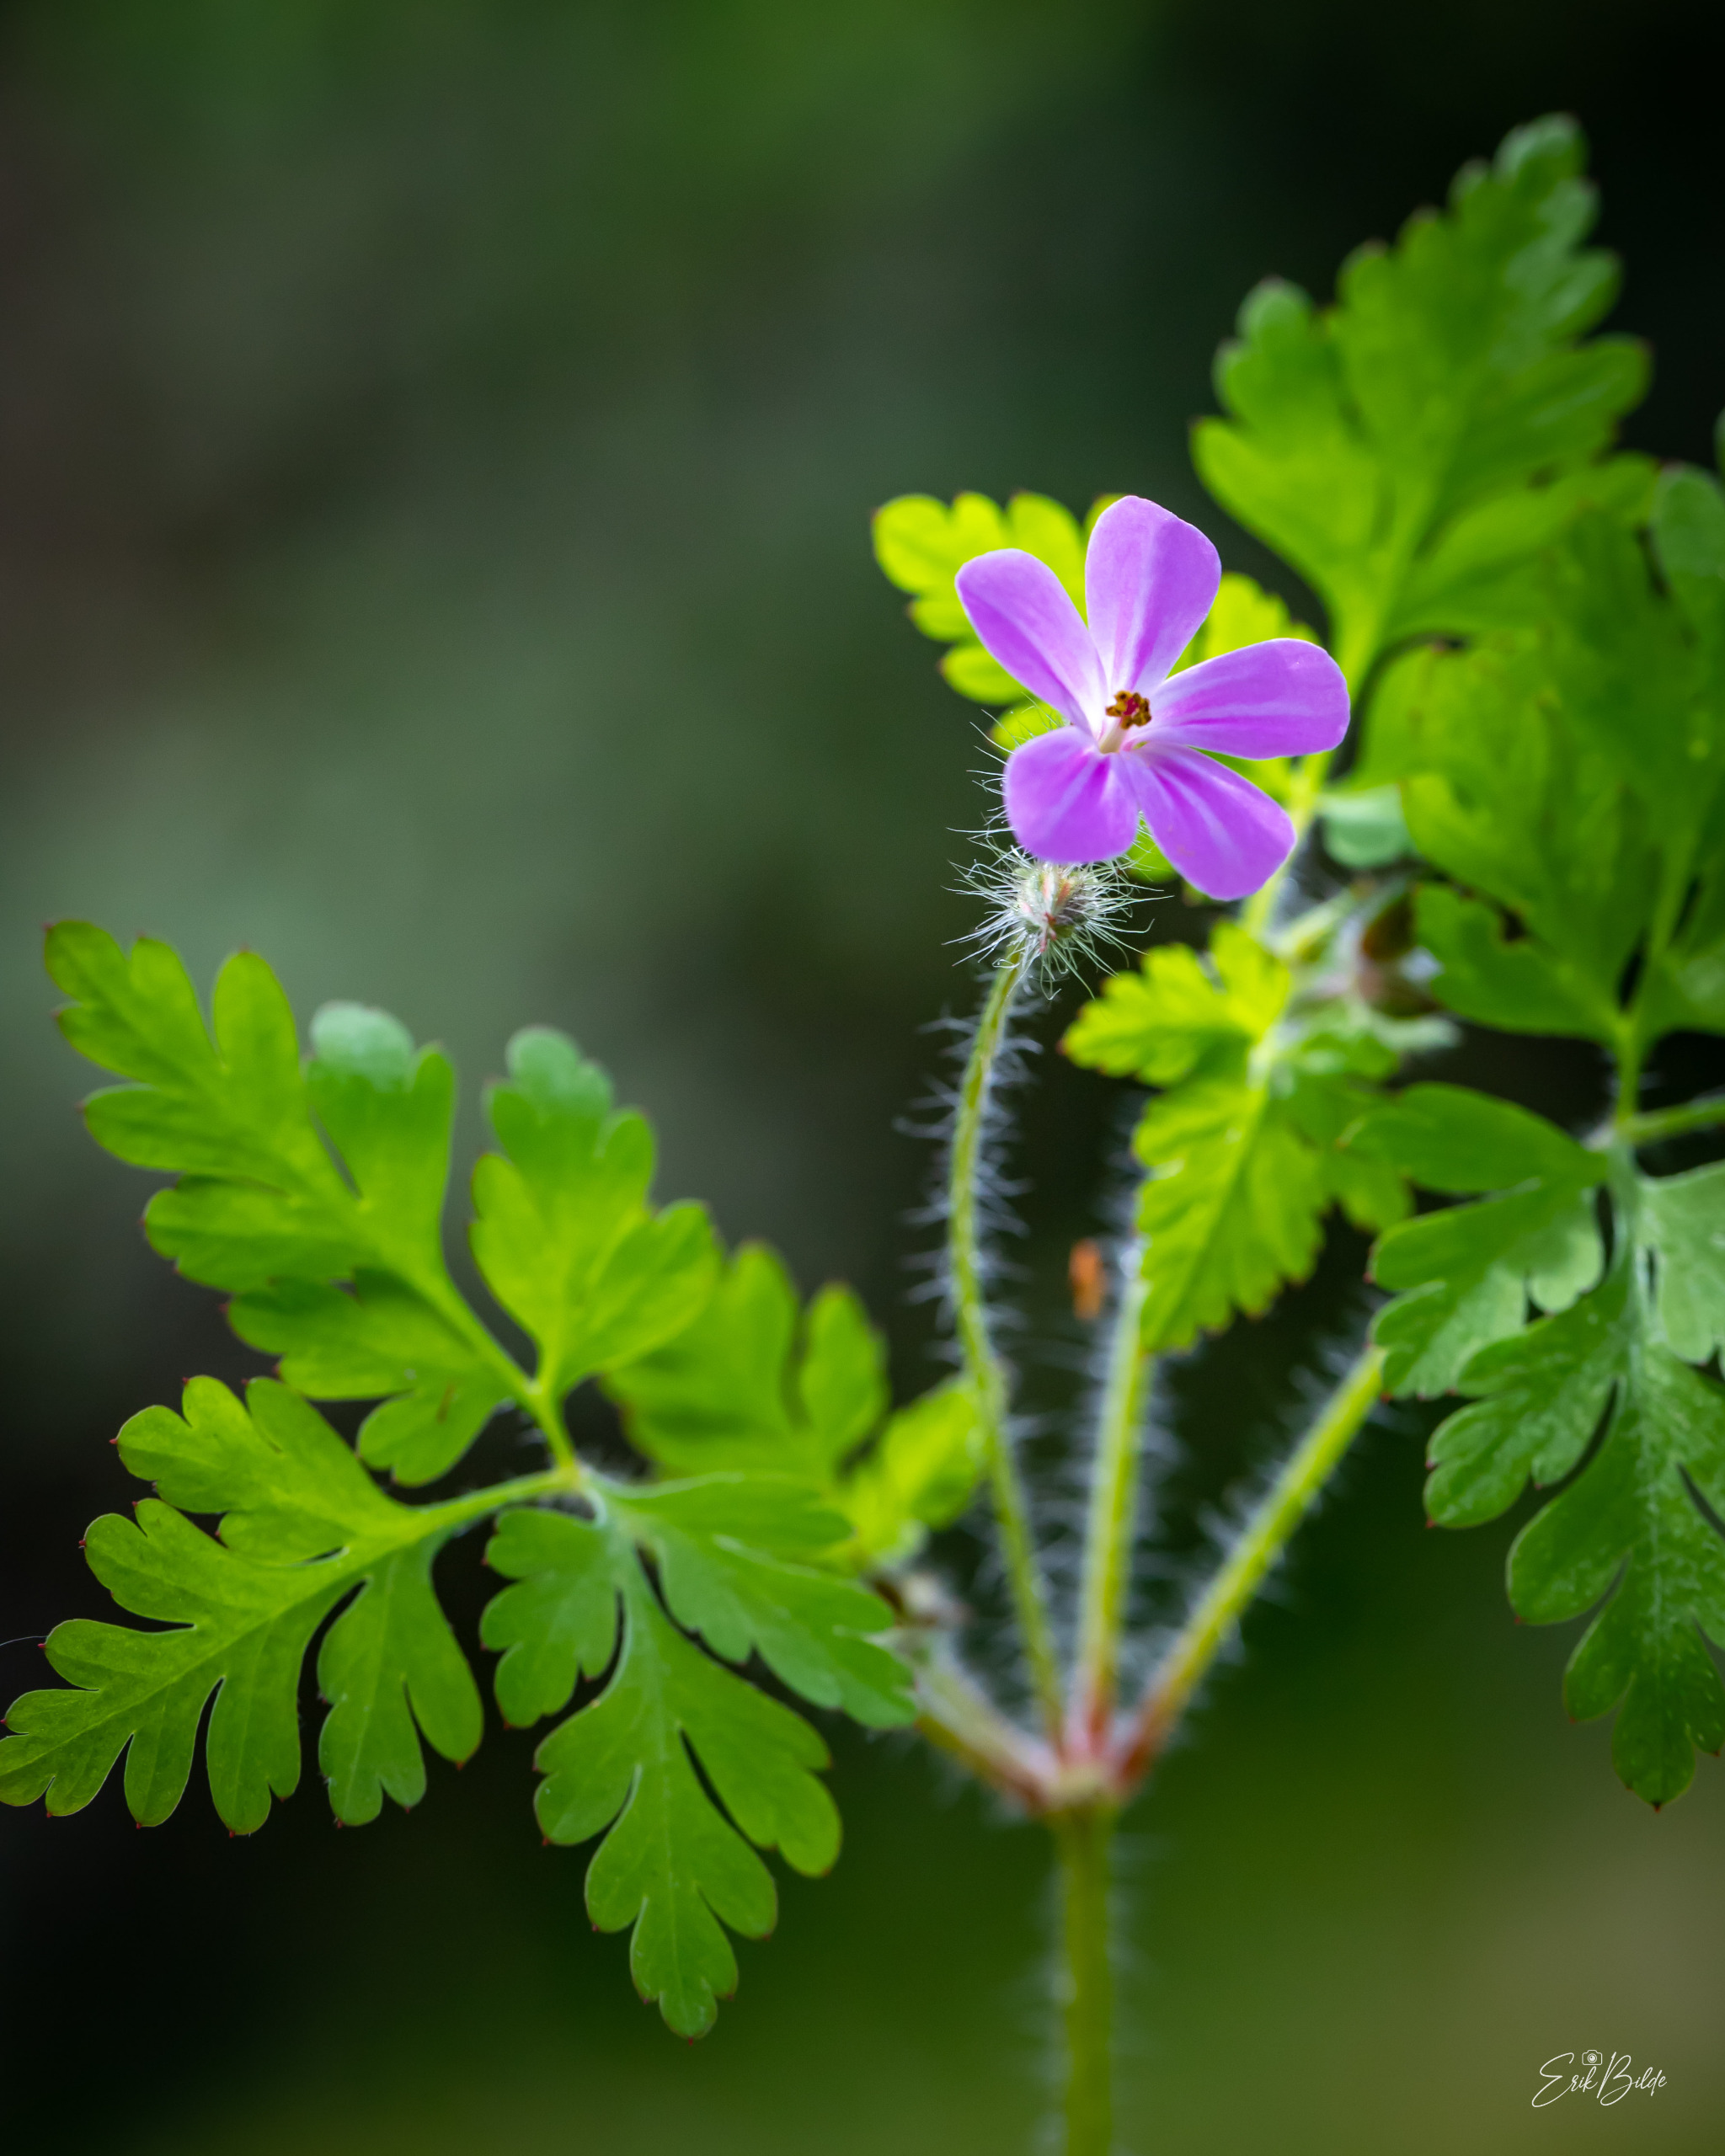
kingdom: Plantae
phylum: Tracheophyta
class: Magnoliopsida
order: Geraniales
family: Geraniaceae
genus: Geranium
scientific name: Geranium robertianum
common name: Stinkende storkenæb
